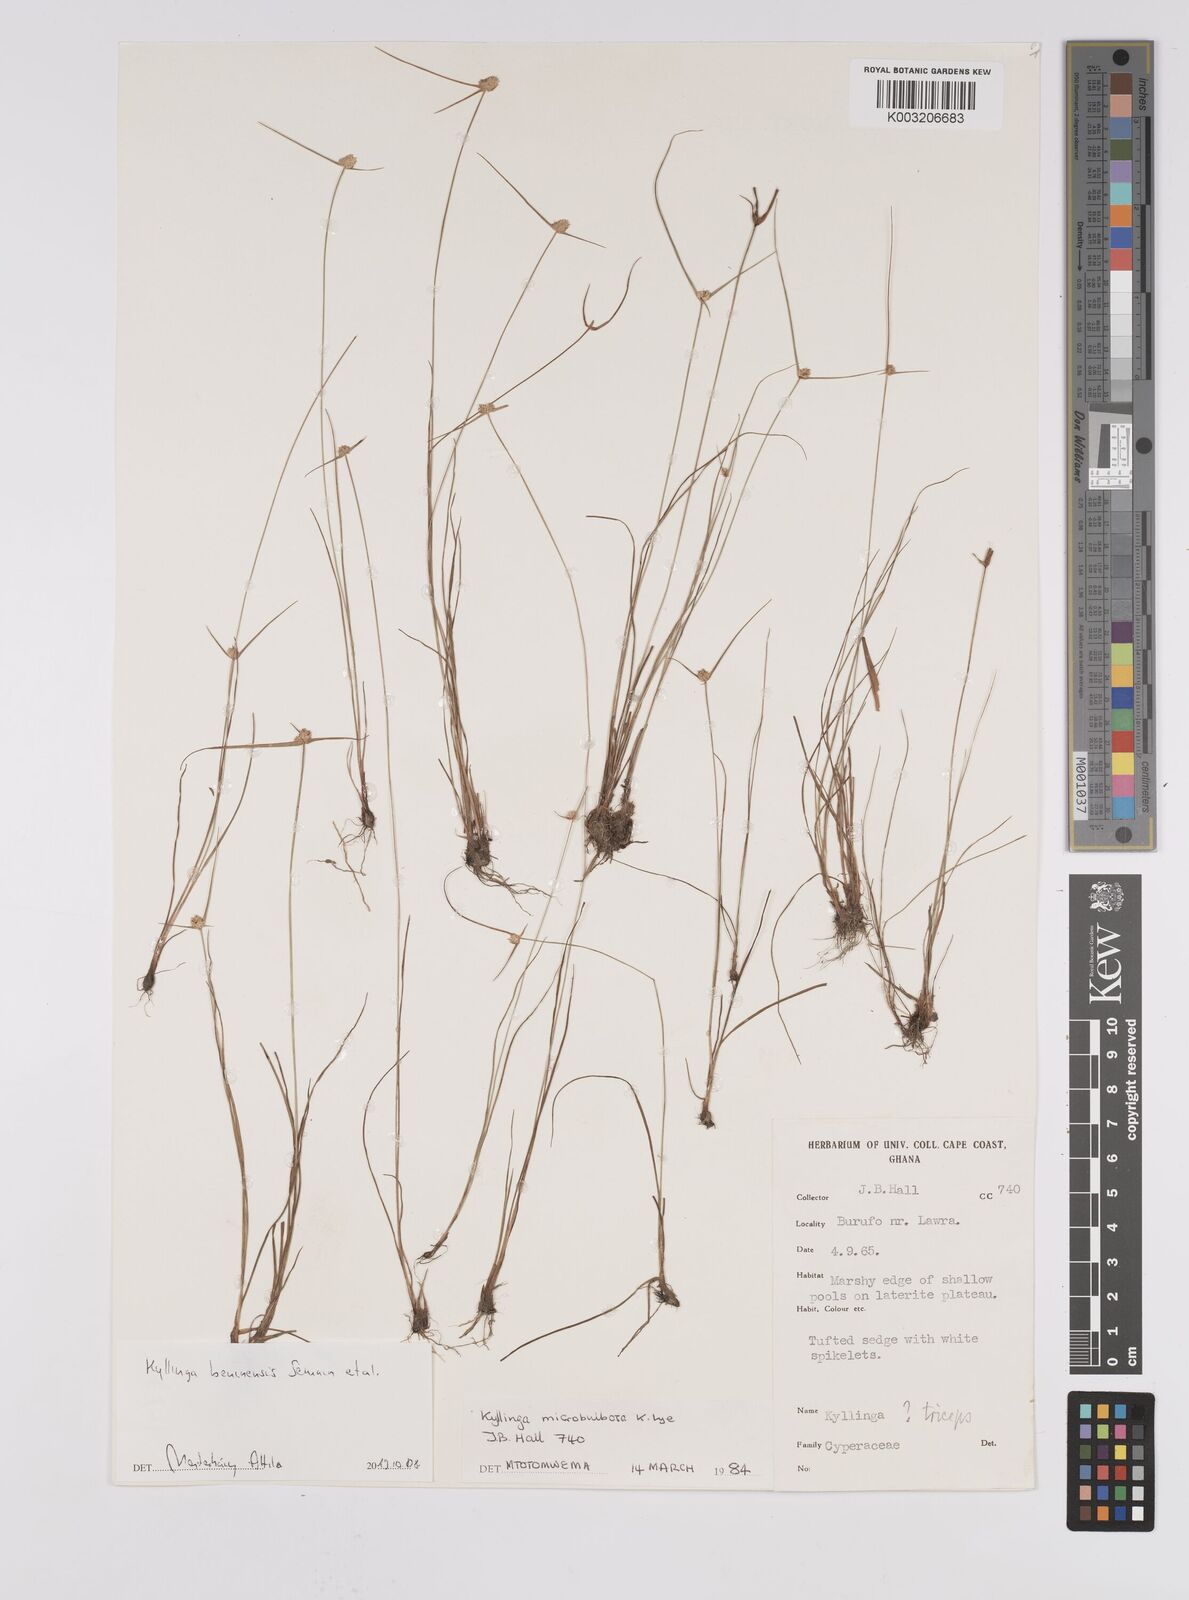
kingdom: Plantae
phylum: Tracheophyta
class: Liliopsida
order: Poales
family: Cyperaceae
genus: Cyperus
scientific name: Cyperus beninensis
